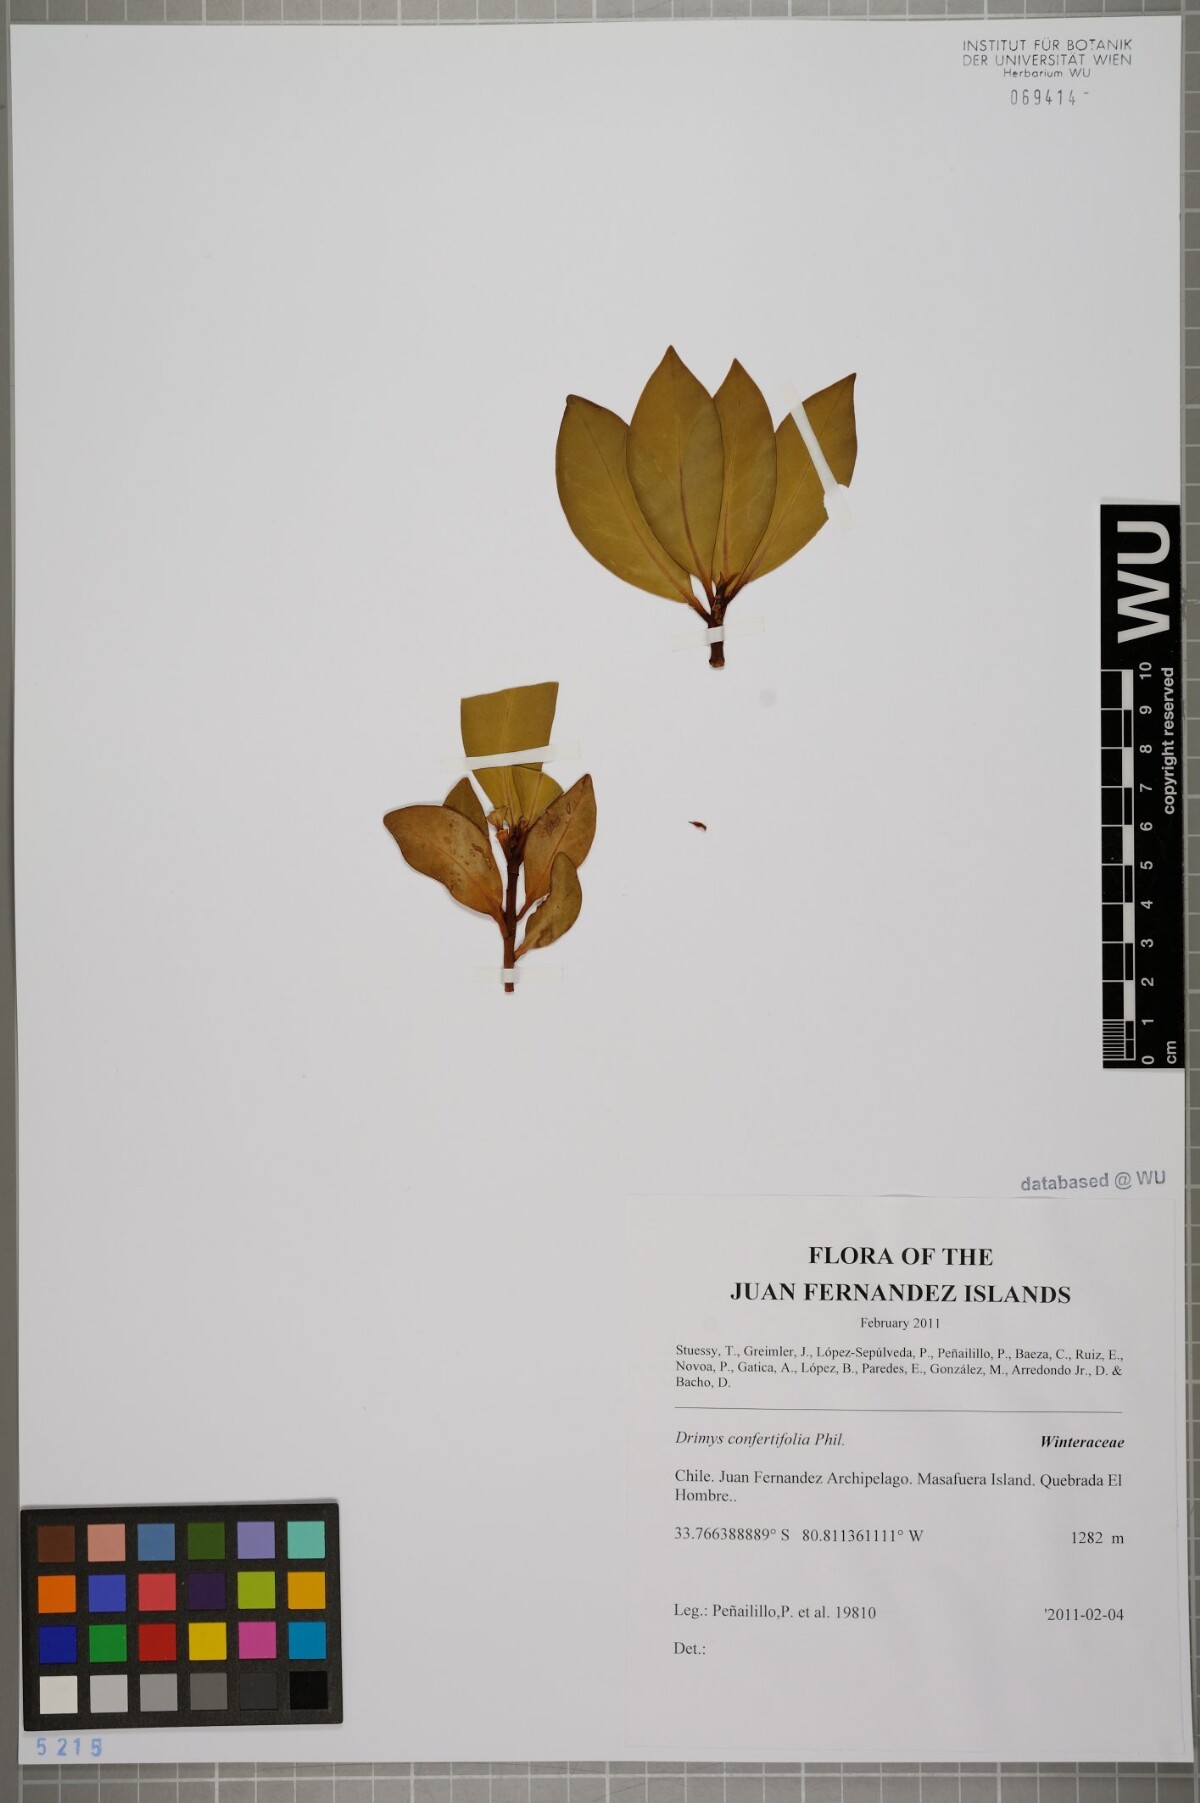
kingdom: Plantae
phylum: Tracheophyta
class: Magnoliopsida
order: Canellales
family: Winteraceae
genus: Drimys
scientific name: Drimys confertiflora
